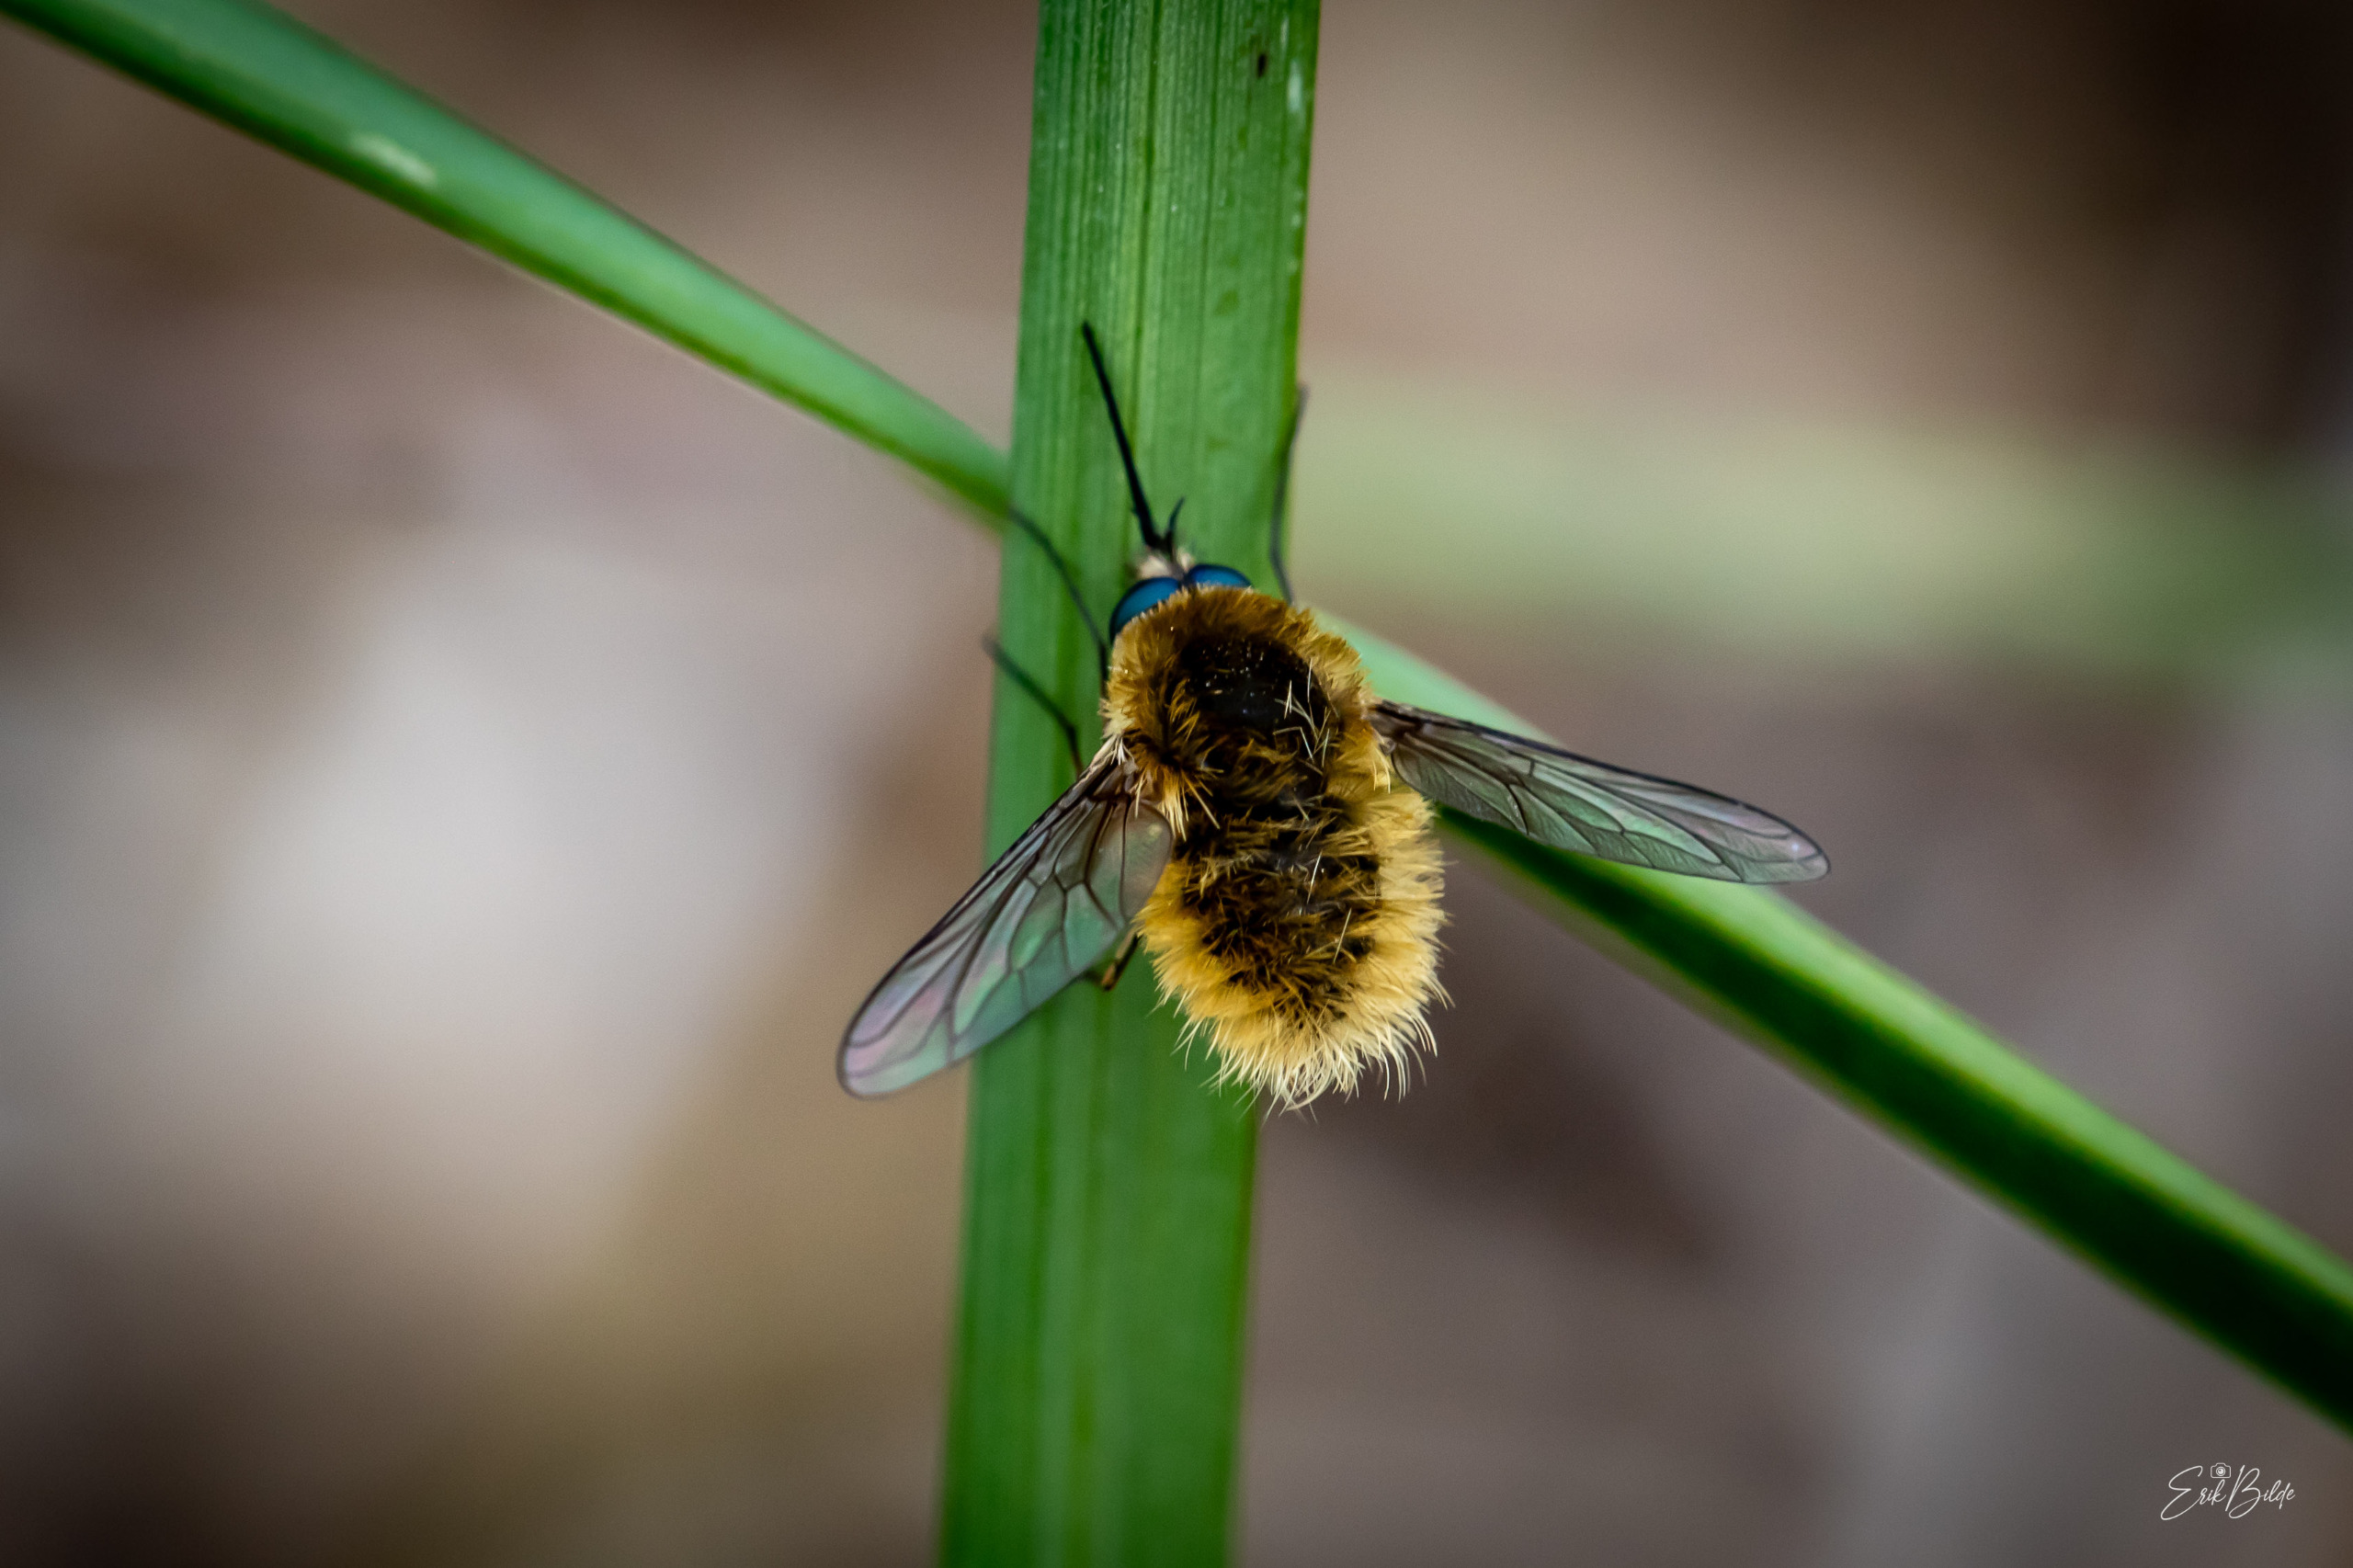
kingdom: Animalia
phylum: Arthropoda
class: Insecta
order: Diptera
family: Bombyliidae
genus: Systoechus
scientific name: Systoechus ctenopterus
